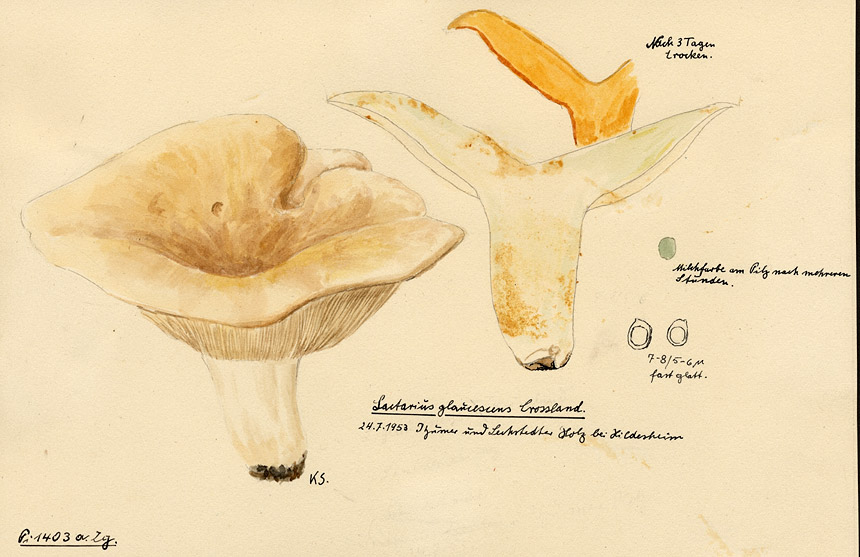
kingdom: Fungi
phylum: Basidiomycota
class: Agaricomycetes
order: Russulales
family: Russulaceae
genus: Lactifluus
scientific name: Lactifluus glaucescens
